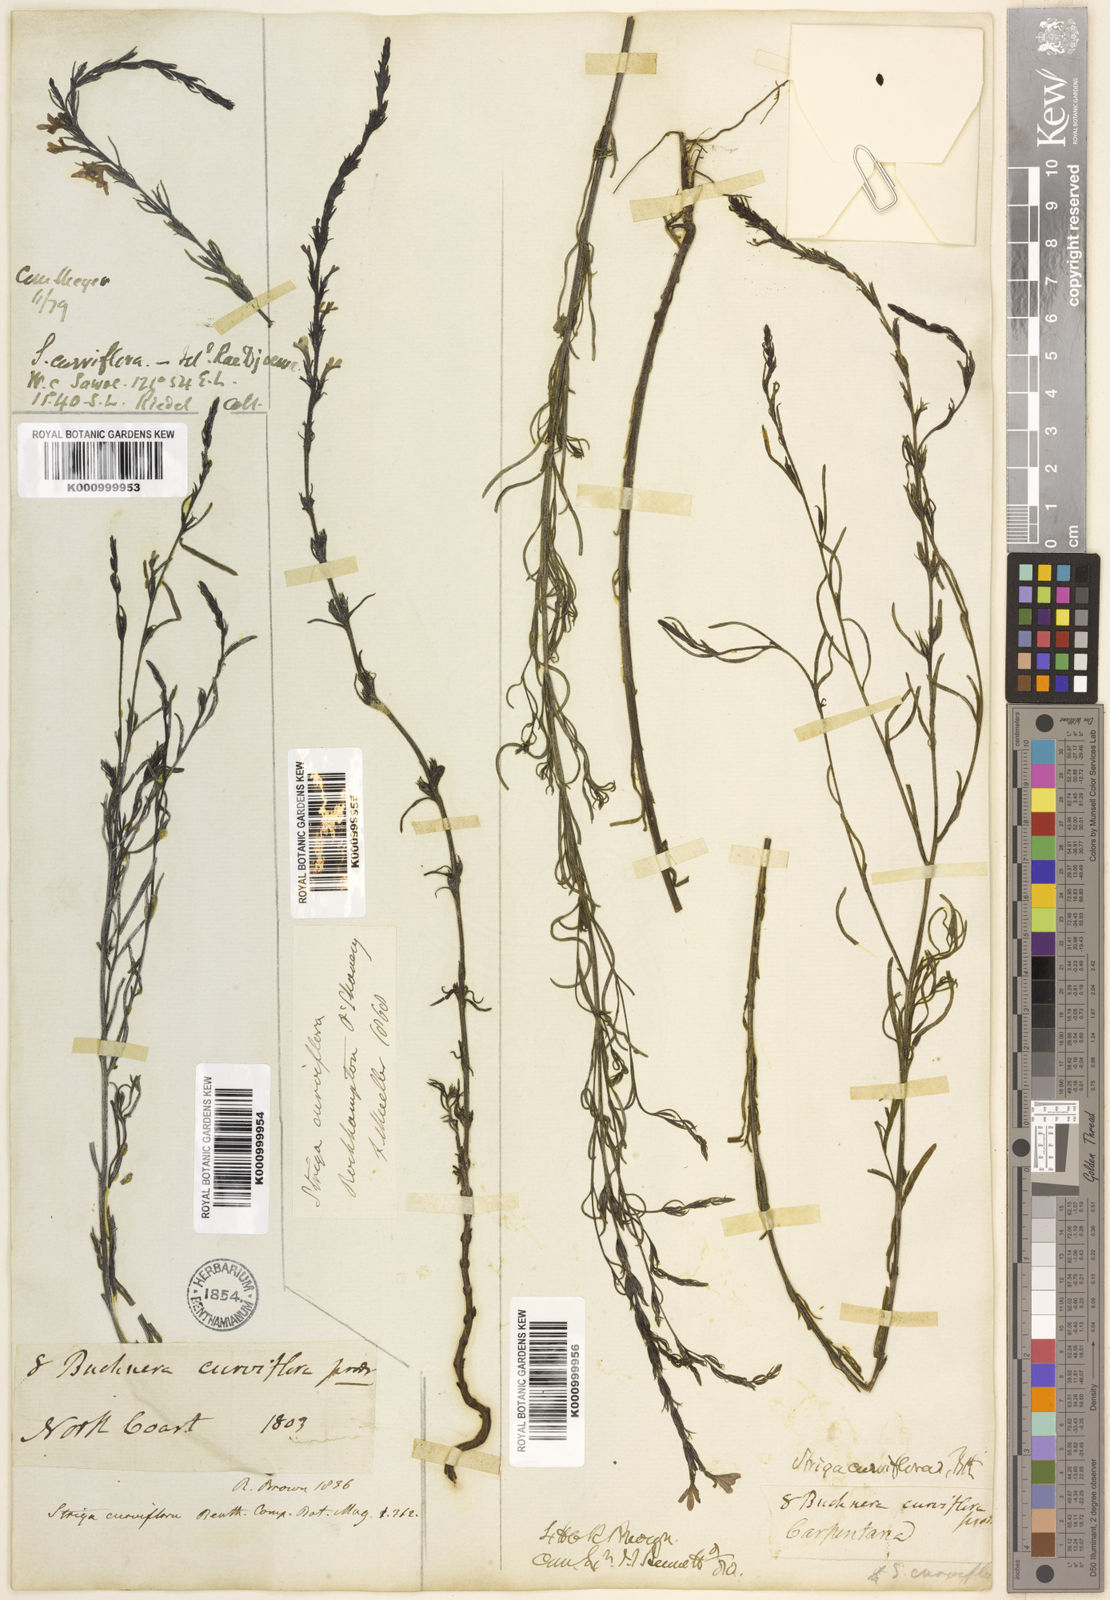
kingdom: Plantae
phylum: Tracheophyta
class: Magnoliopsida
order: Lamiales
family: Orobanchaceae
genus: Striga
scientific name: Striga curviflora
